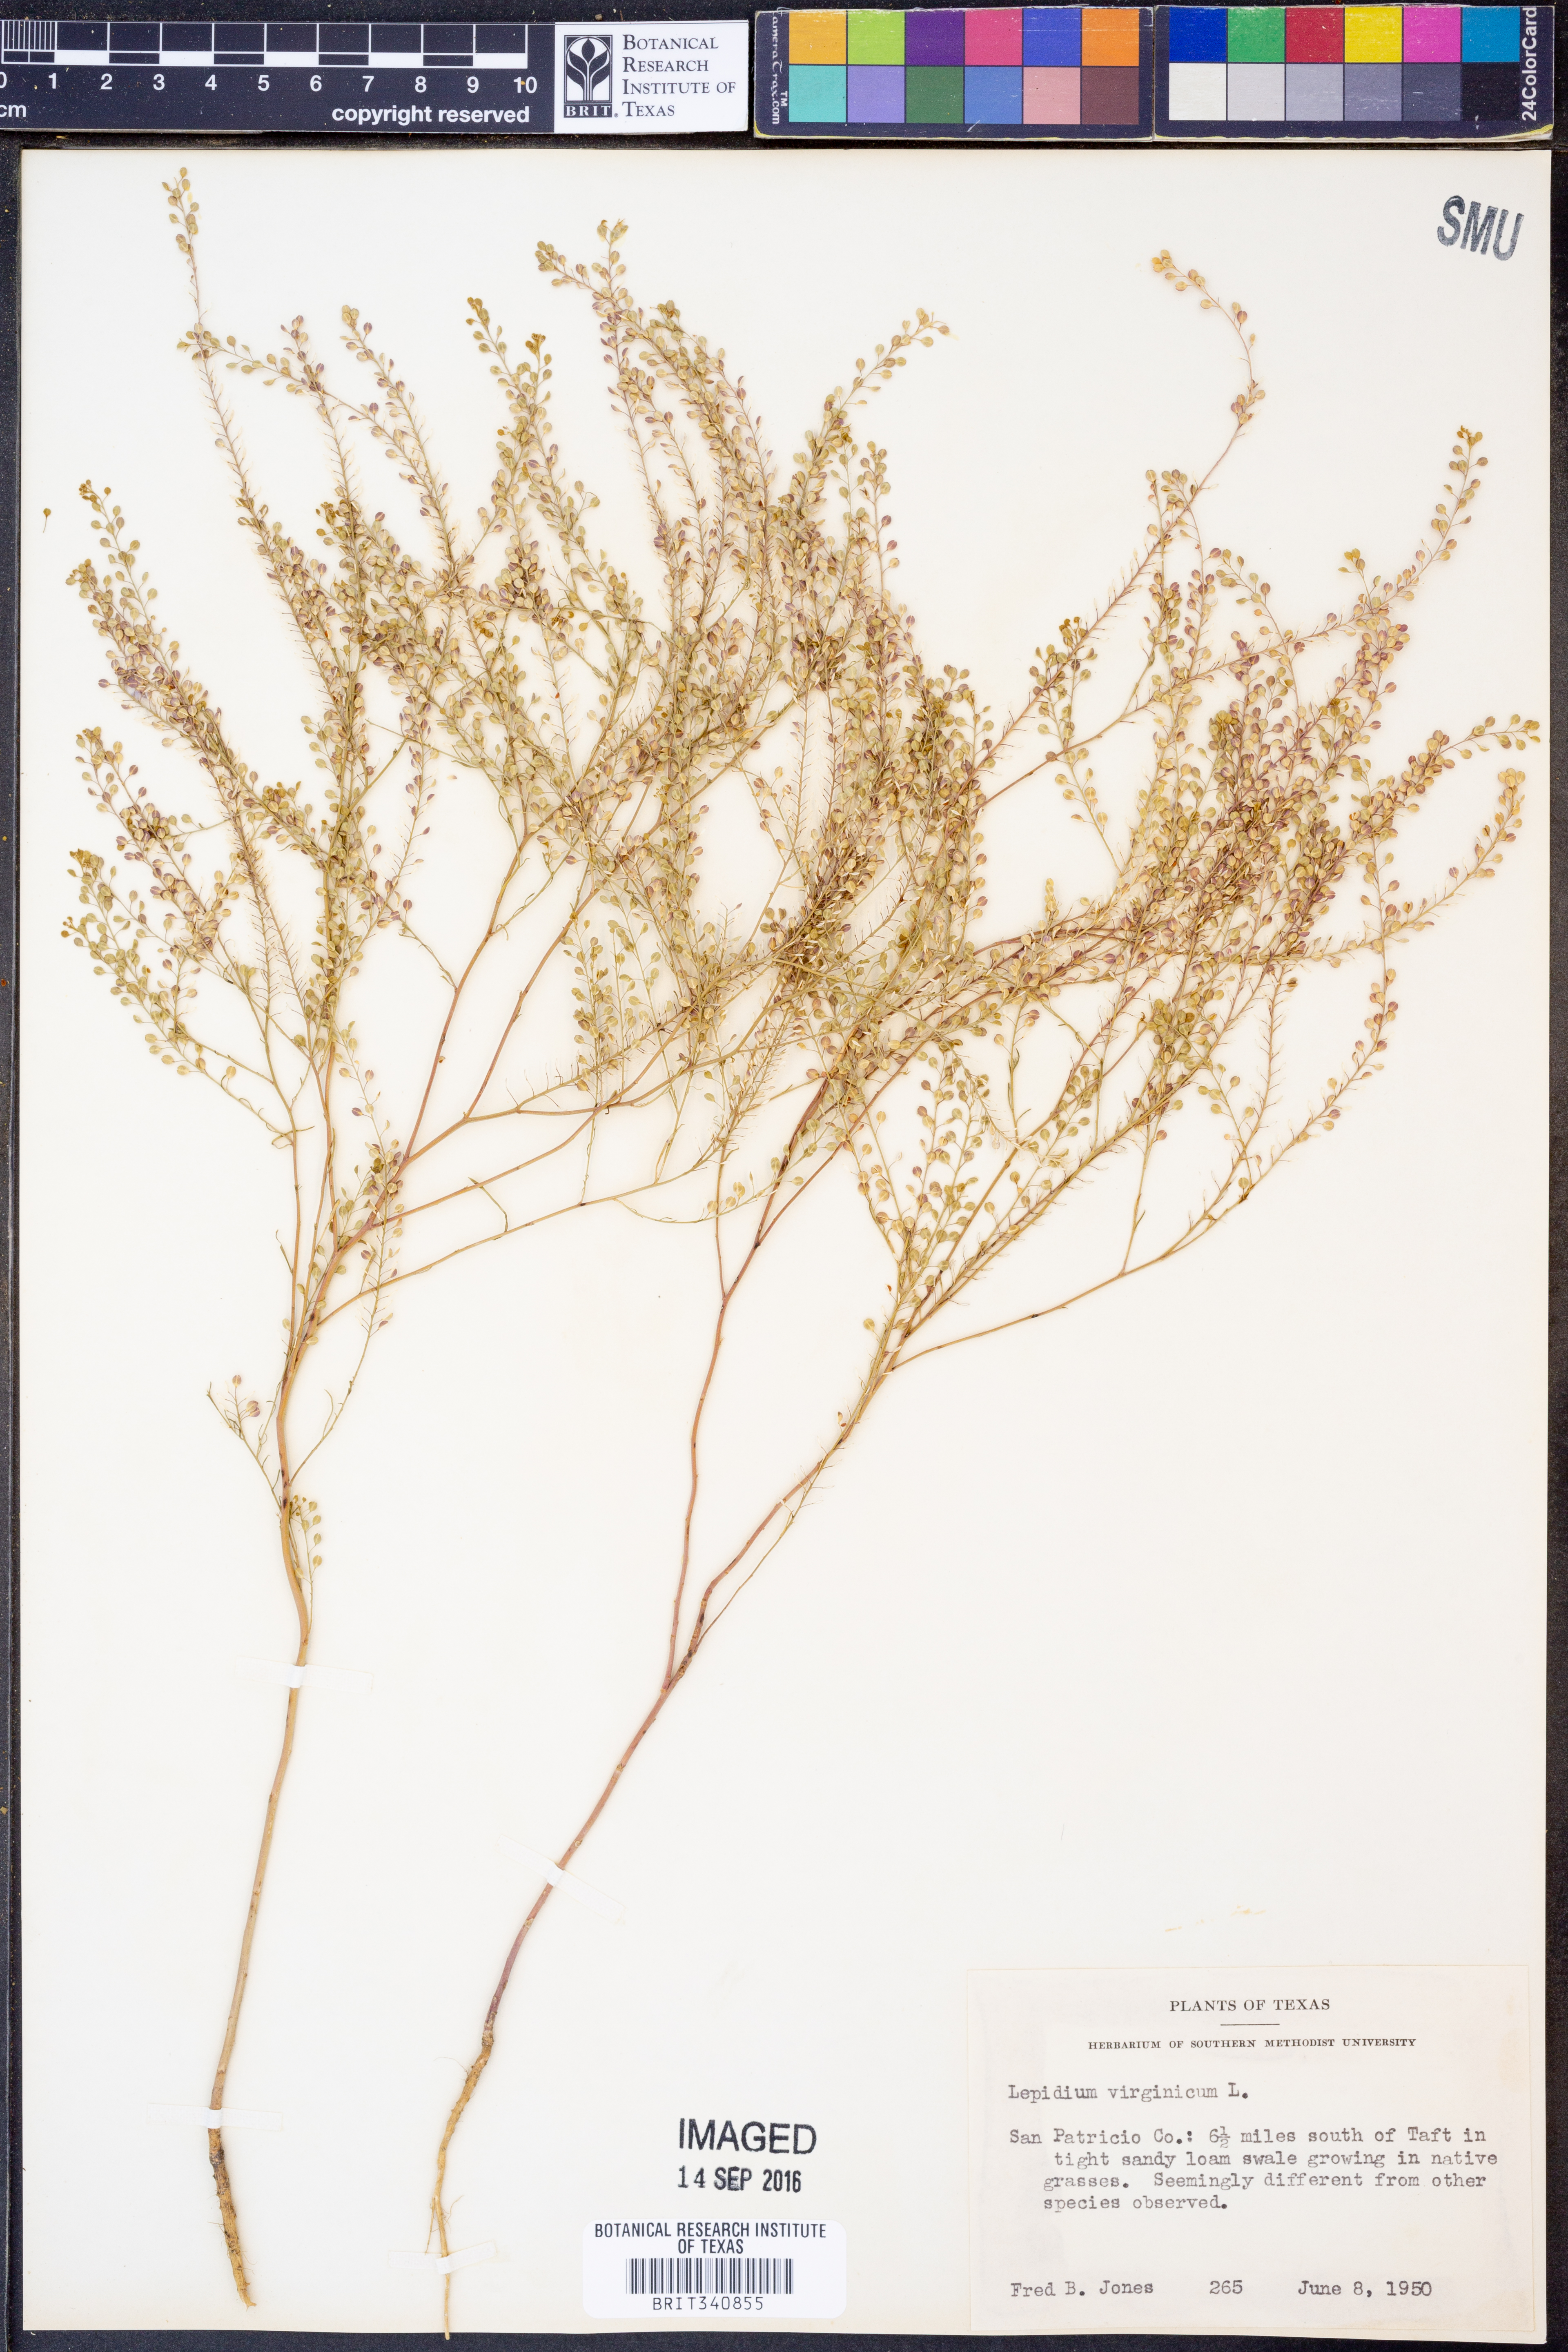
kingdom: Plantae
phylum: Tracheophyta
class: Magnoliopsida
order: Brassicales
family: Brassicaceae
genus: Lepidium
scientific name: Lepidium virginicum
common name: Least pepperwort
